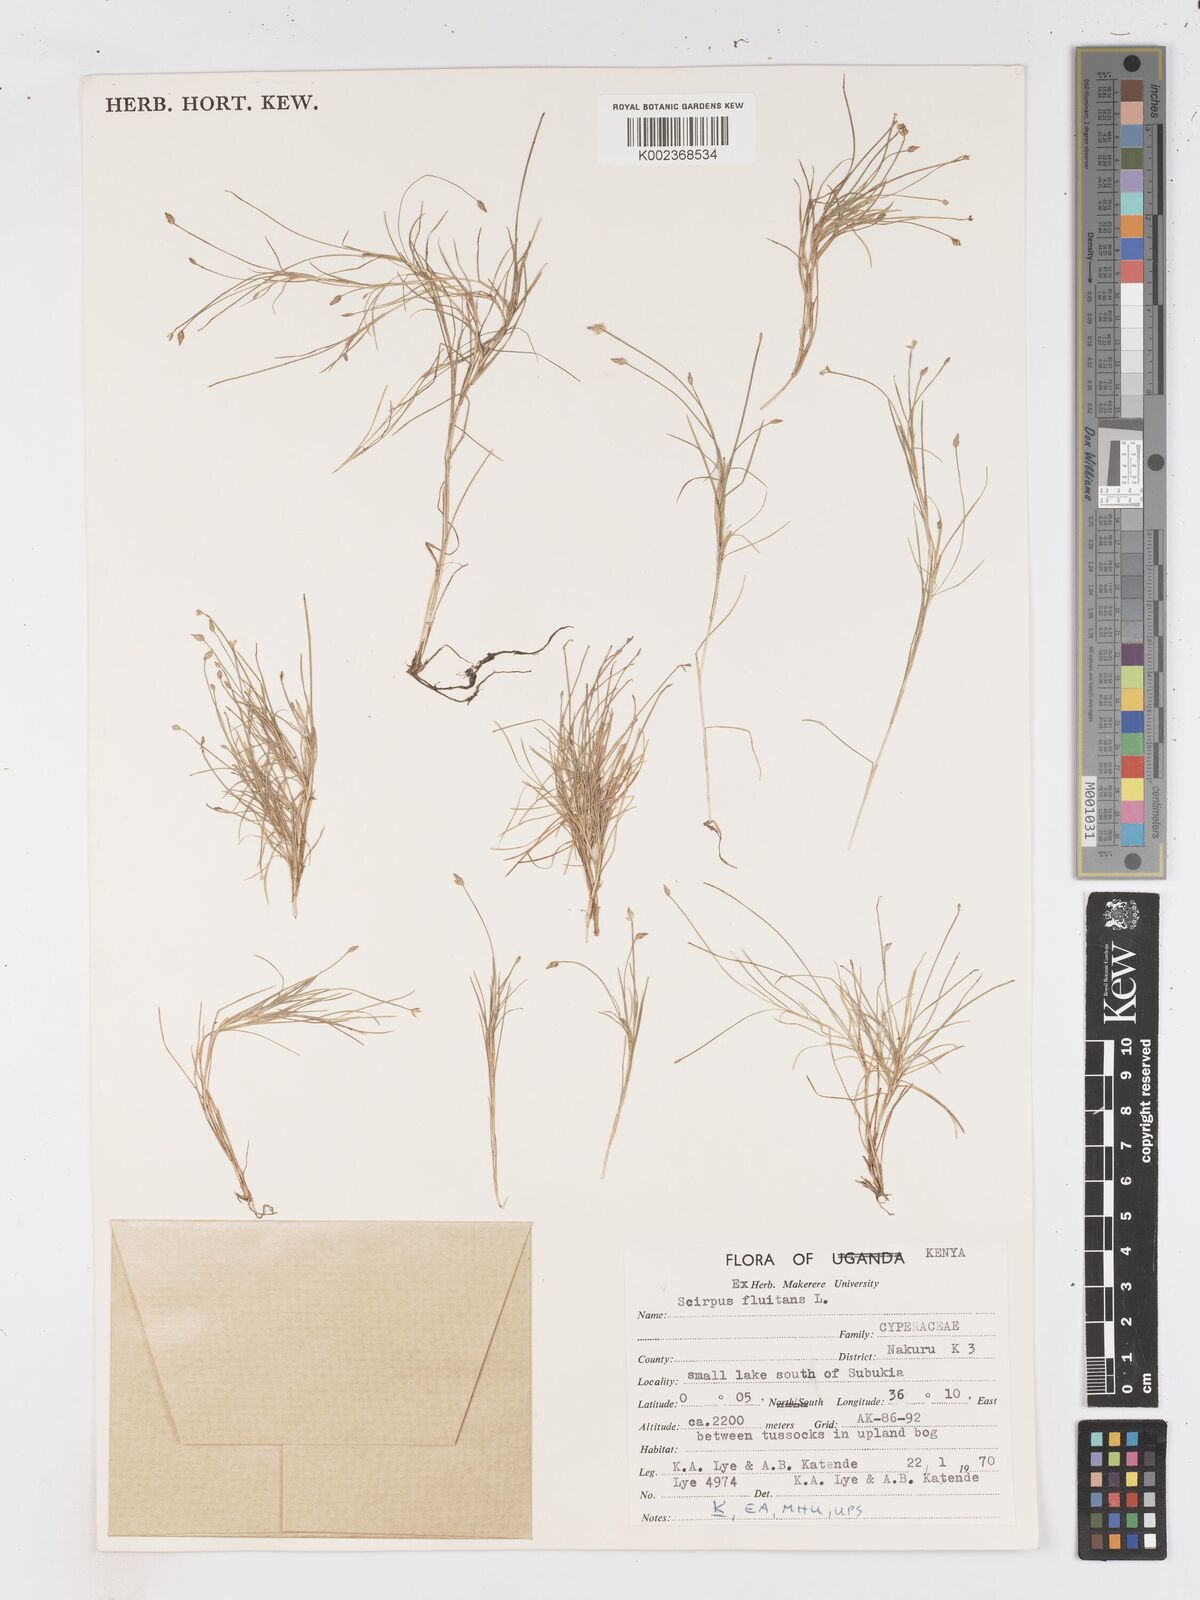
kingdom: Plantae
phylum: Tracheophyta
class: Liliopsida
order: Poales
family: Cyperaceae
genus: Isolepis
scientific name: Isolepis fluitans
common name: Floating club-rush
